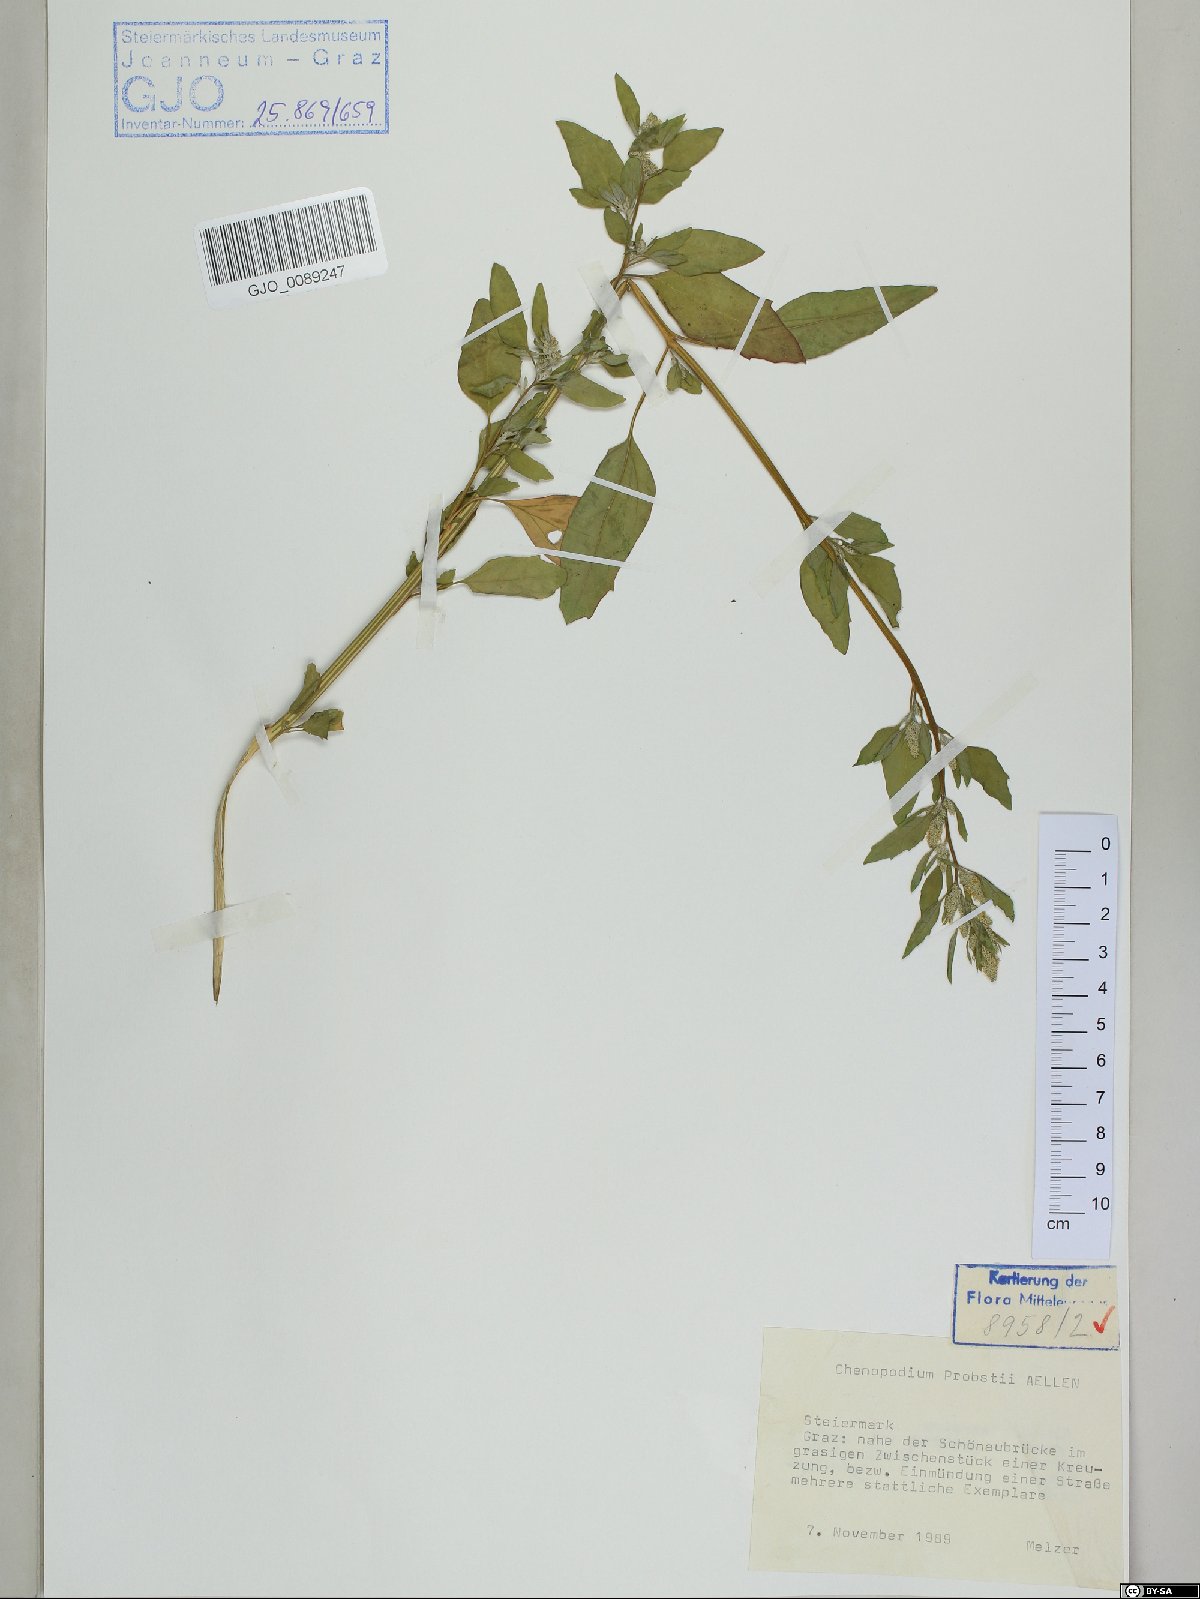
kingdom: Plantae
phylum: Tracheophyta
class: Magnoliopsida
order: Caryophyllales
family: Amaranthaceae
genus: Chenopodium
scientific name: Chenopodium probstii
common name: Probst's goosefoot
